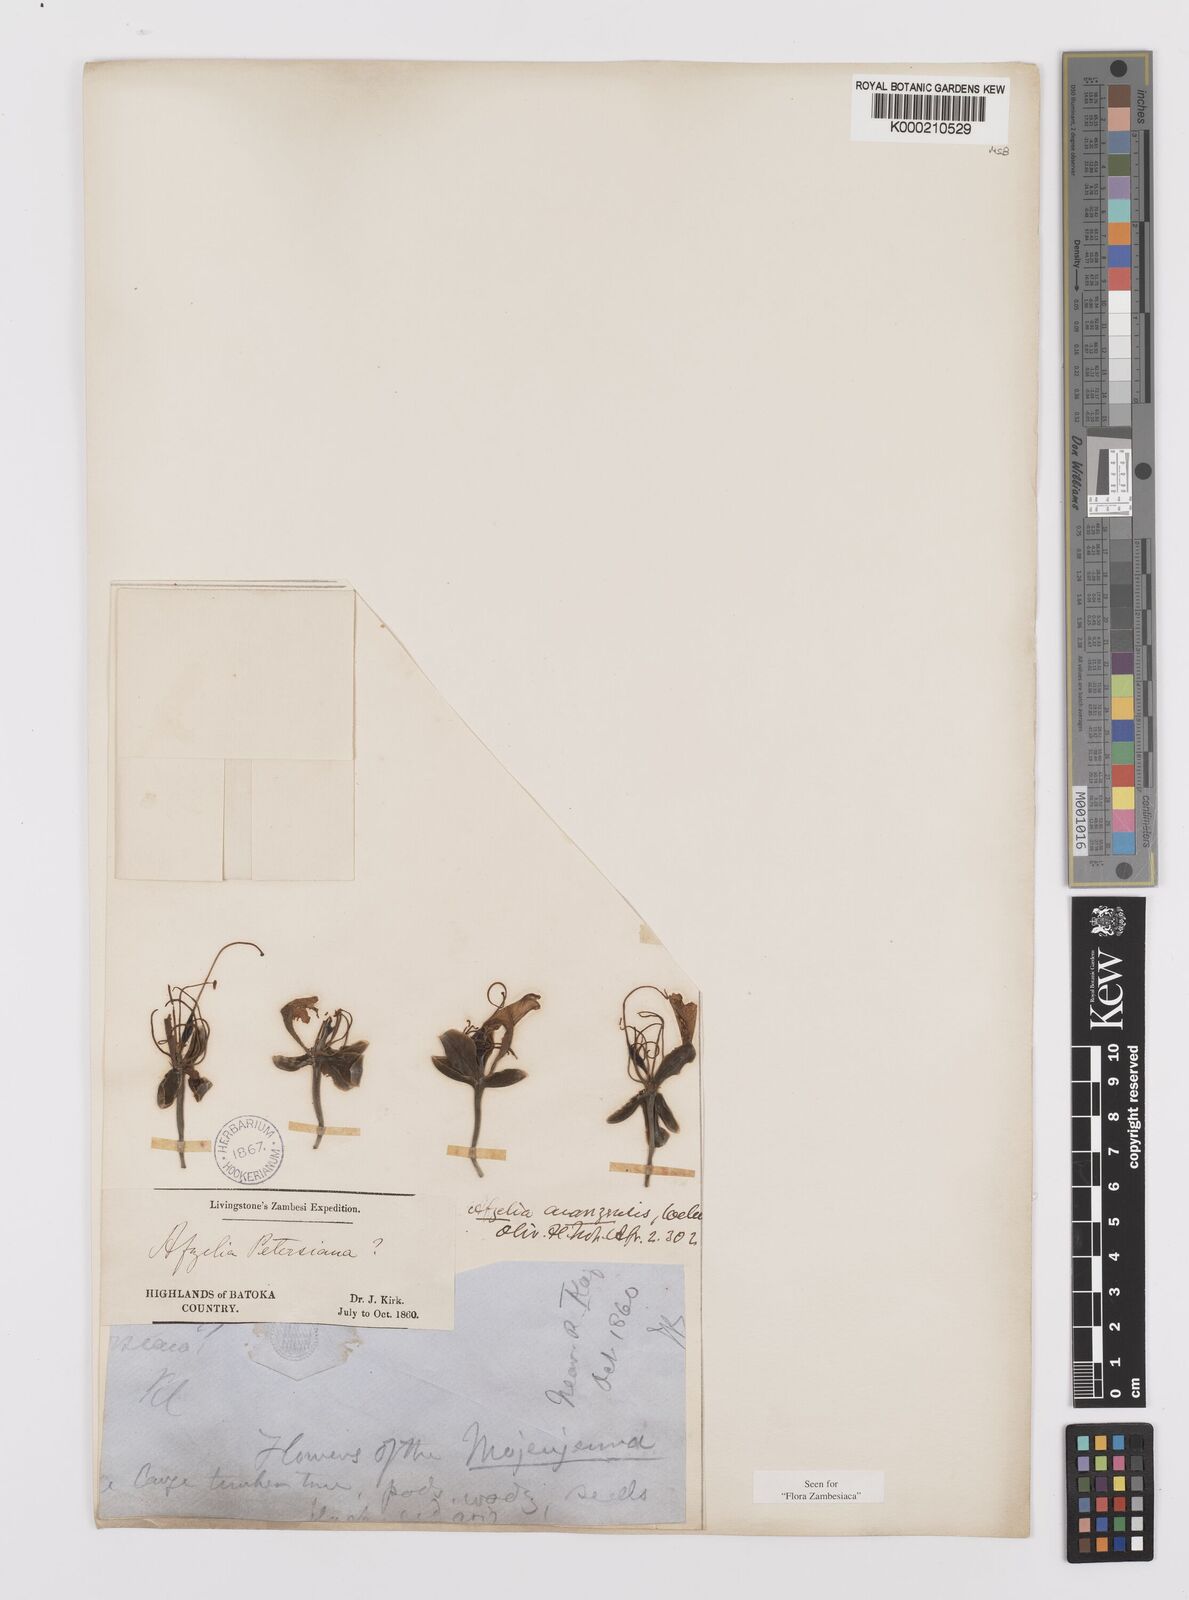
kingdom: Plantae
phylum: Tracheophyta
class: Magnoliopsida
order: Fabales
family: Fabaceae
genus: Afzelia
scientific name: Afzelia quanzensis
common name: Pod mahogany
